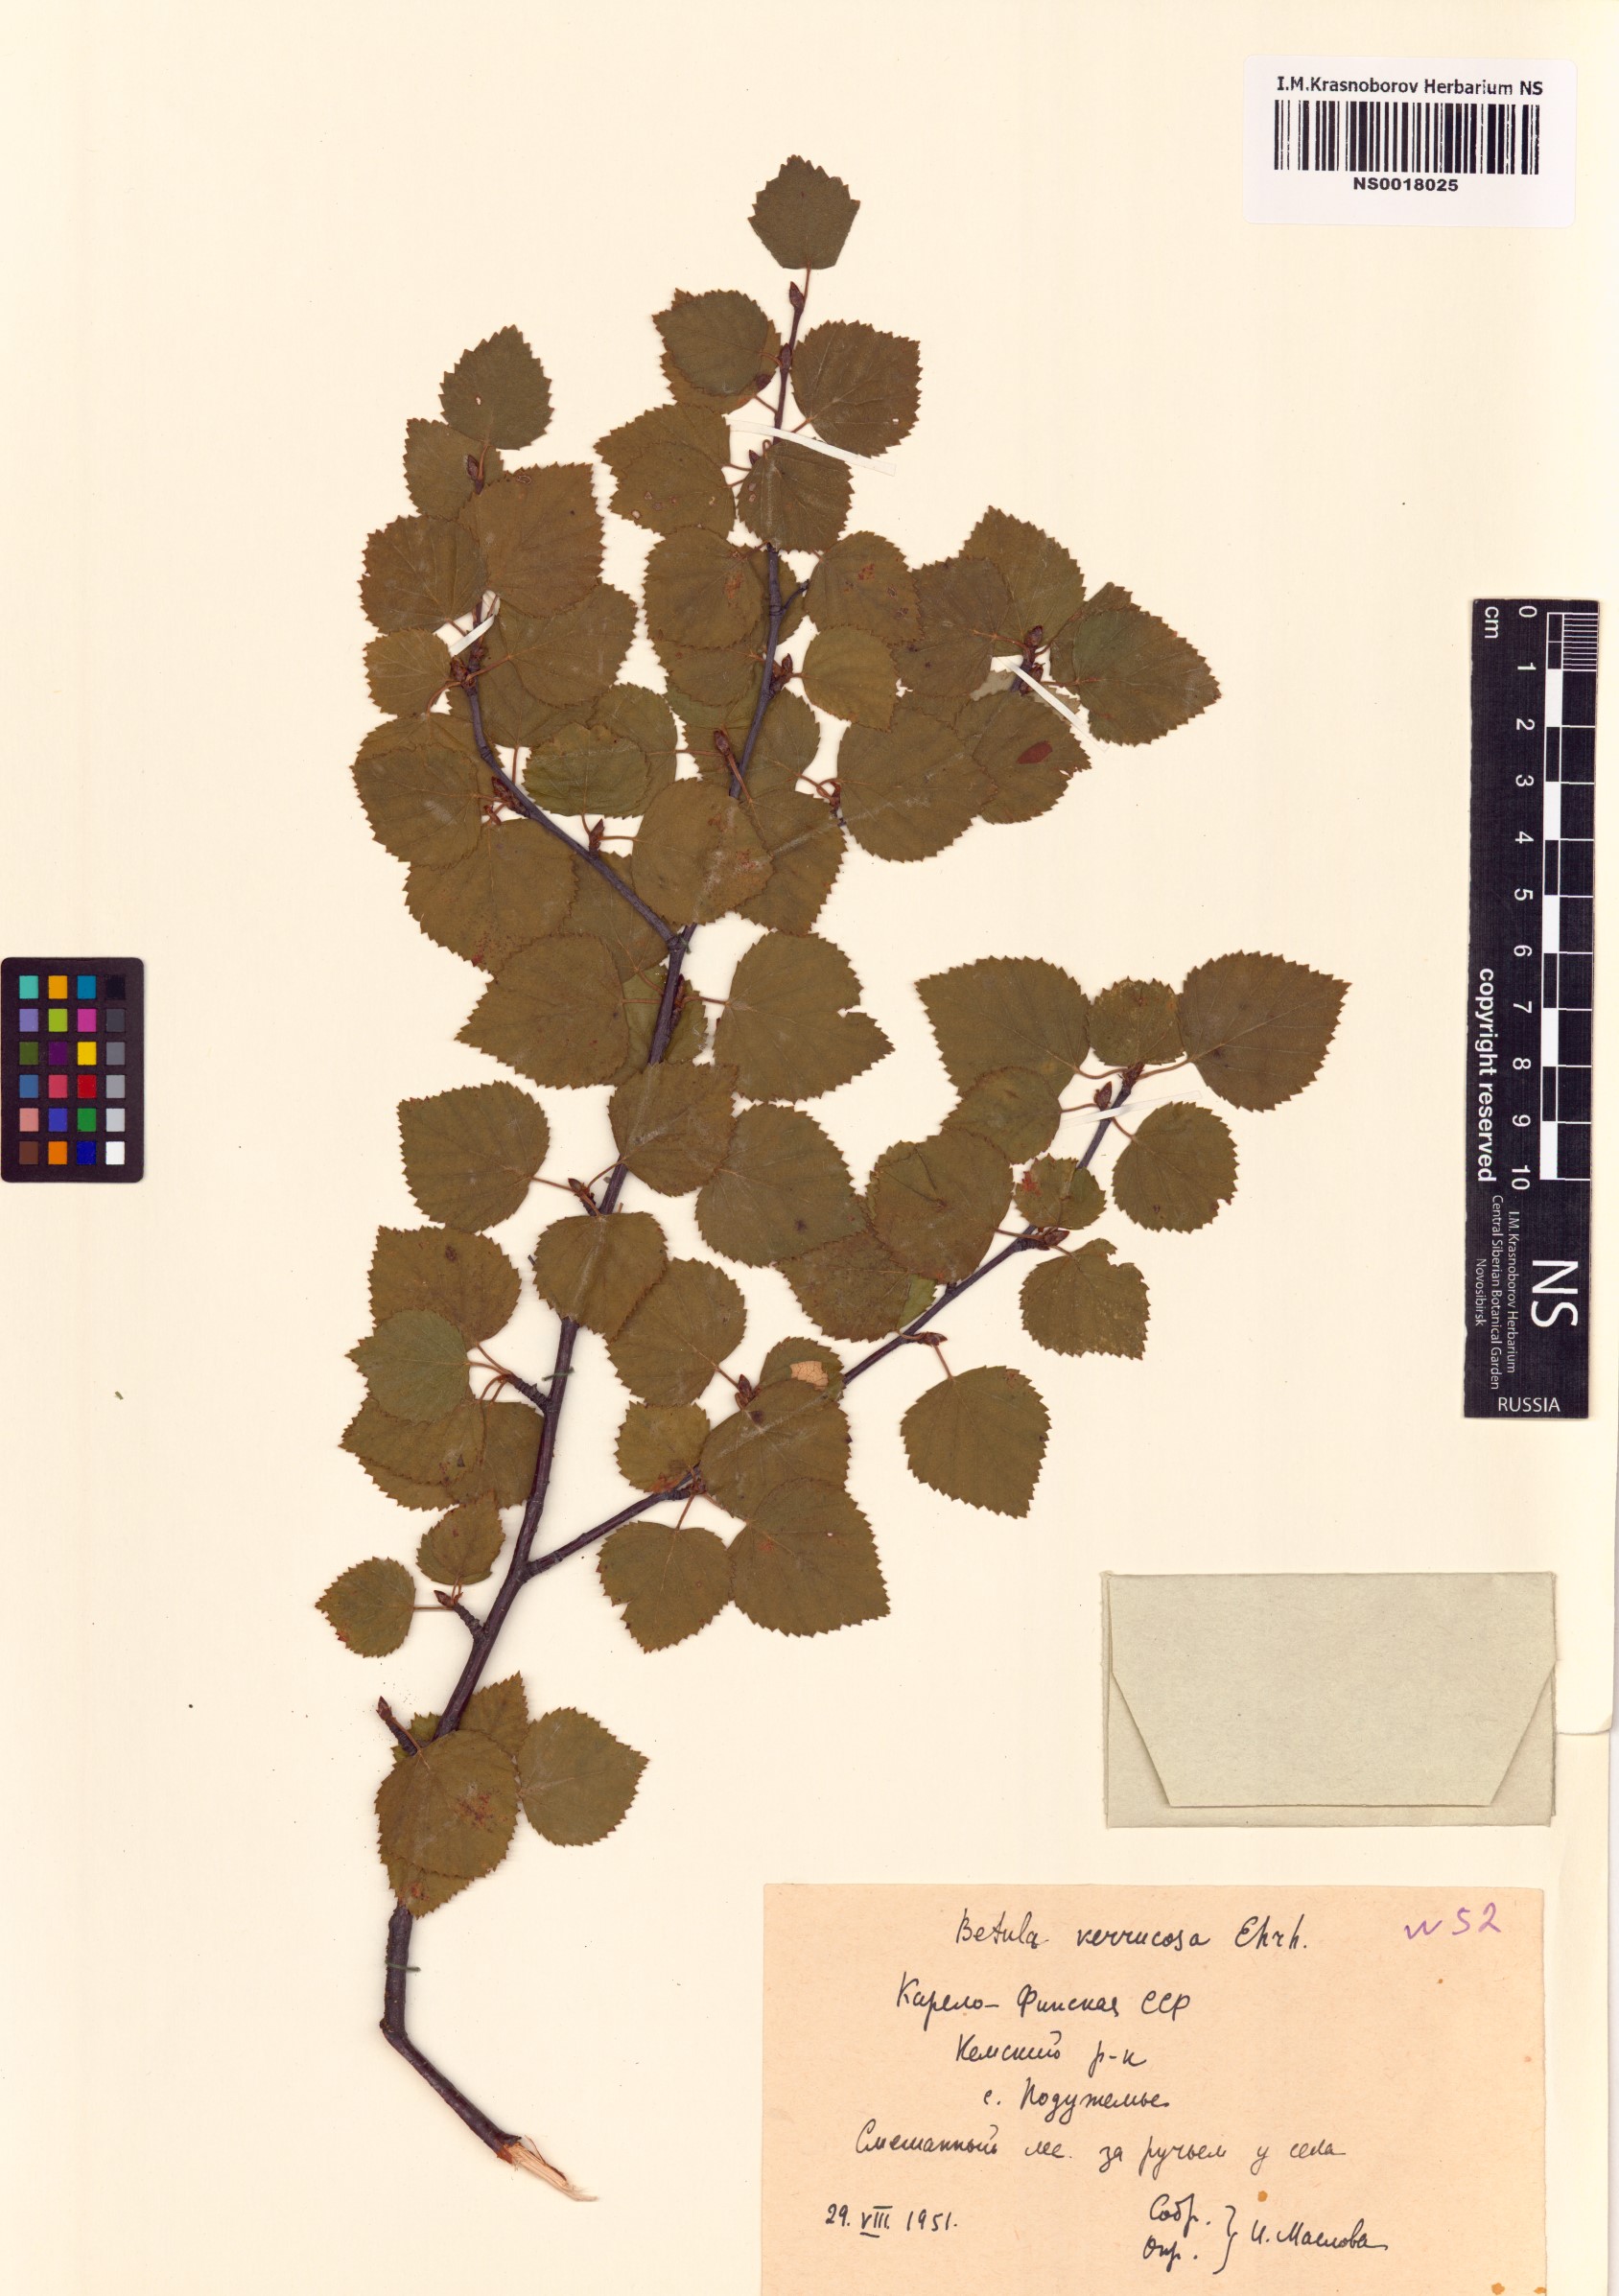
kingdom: Plantae
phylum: Tracheophyta
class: Magnoliopsida
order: Fagales
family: Betulaceae
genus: Betula
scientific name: Betula pendula
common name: Silver birch
